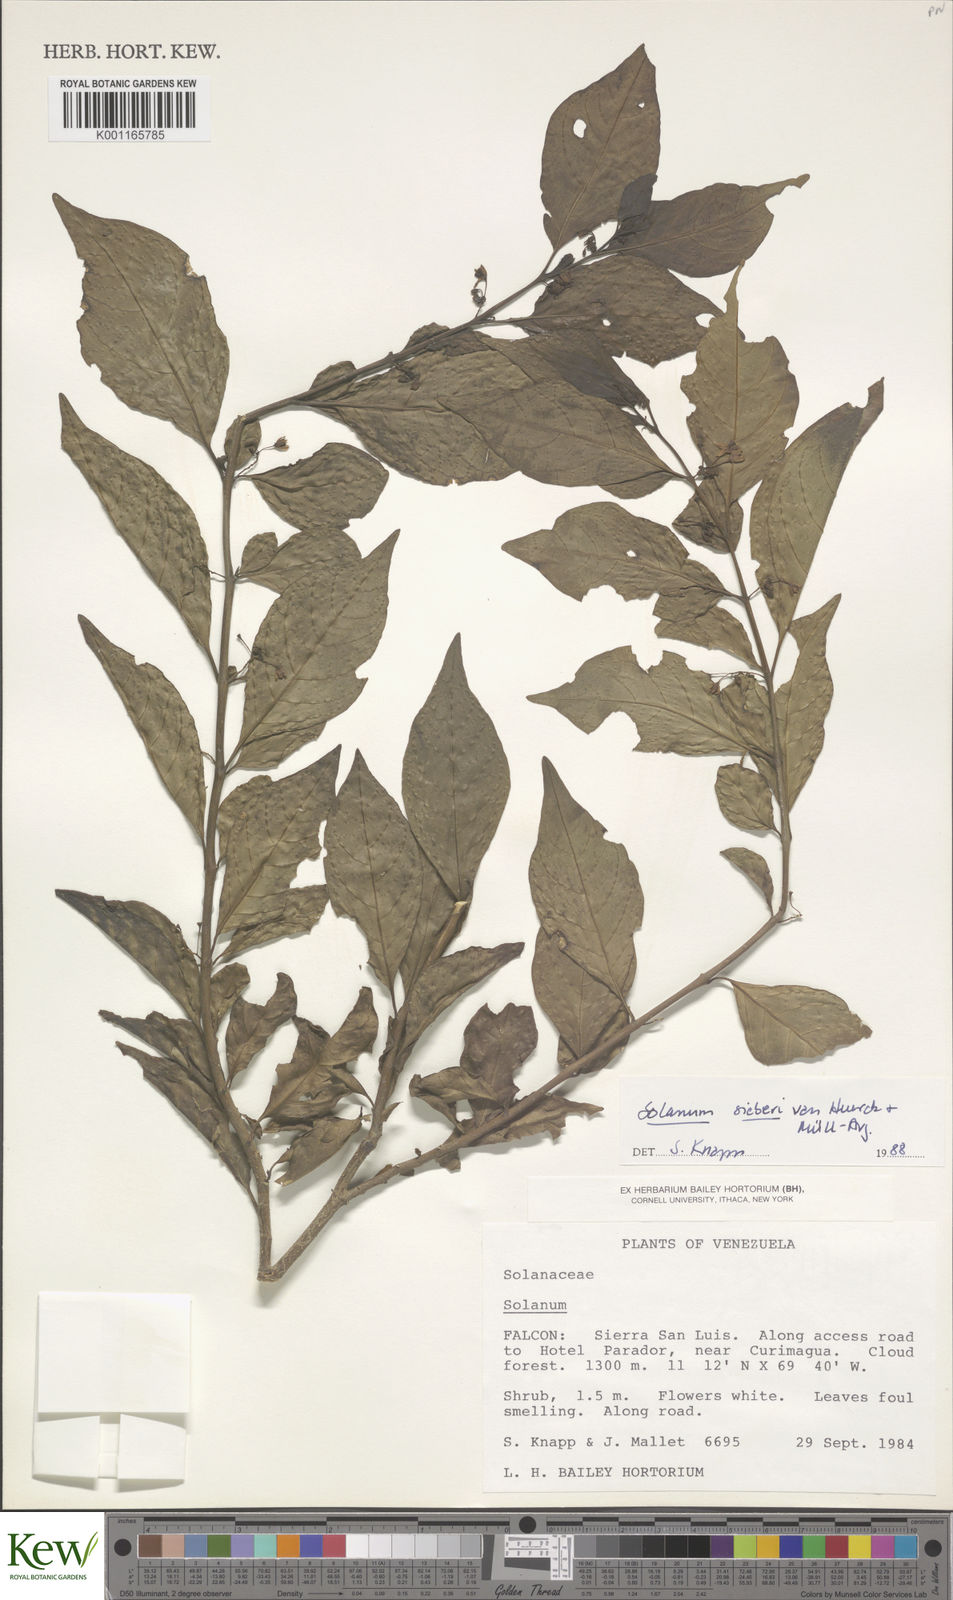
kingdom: Plantae
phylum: Tracheophyta
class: Magnoliopsida
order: Solanales
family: Solanaceae
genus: Solanum
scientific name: Solanum sieberi
